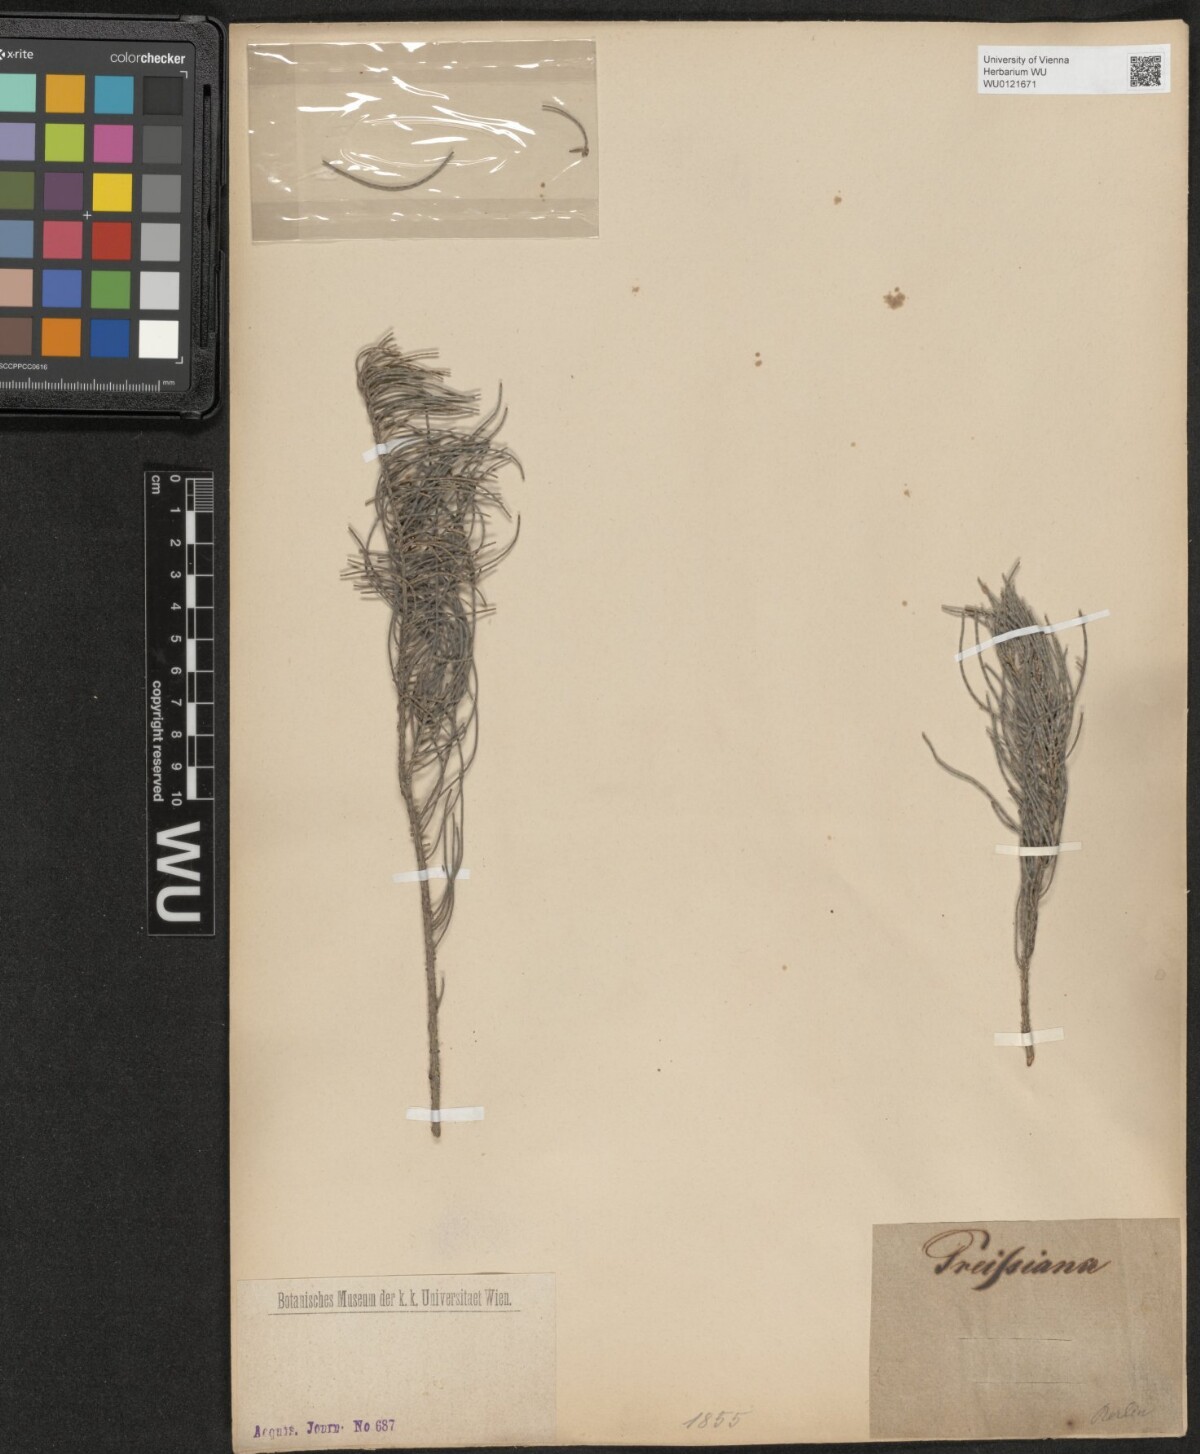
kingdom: Plantae
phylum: Tracheophyta
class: Magnoliopsida
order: Fagales
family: Casuarinaceae
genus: Allocasuarina
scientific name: Allocasuarina humilis
